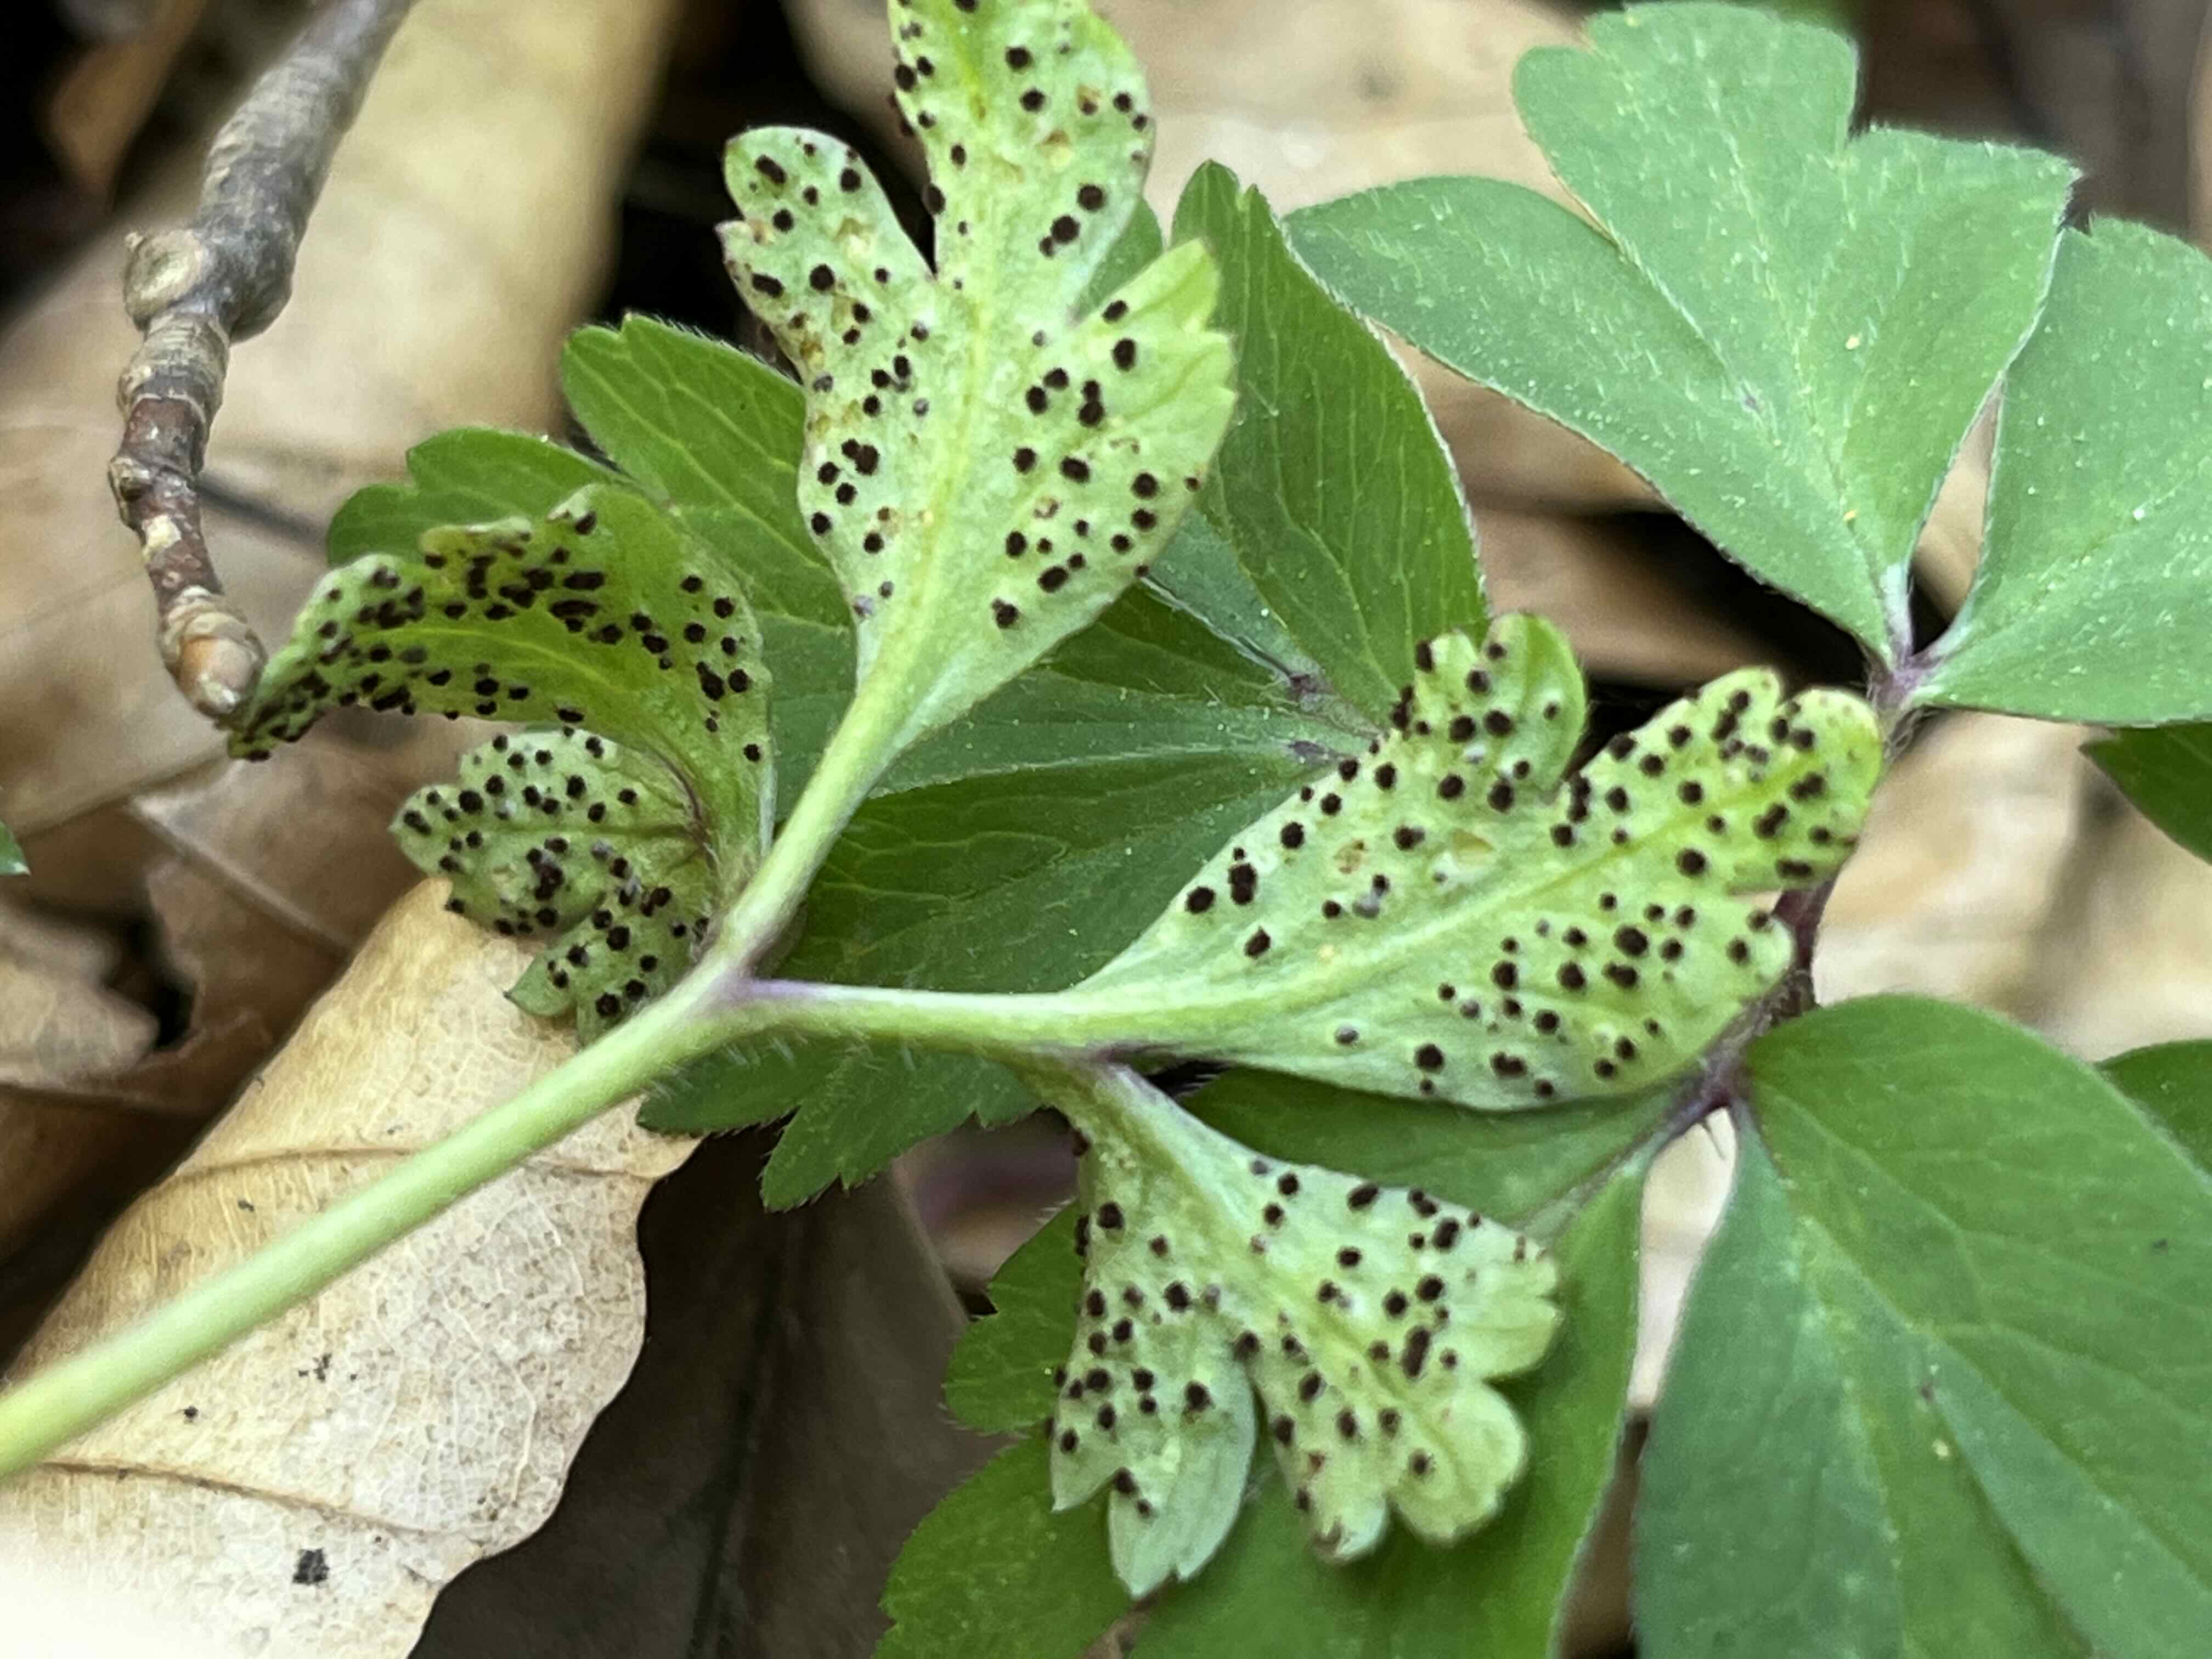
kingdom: Fungi
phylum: Basidiomycota
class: Pucciniomycetes
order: Pucciniales
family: Tranzscheliaceae
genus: Tranzschelia
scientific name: Tranzschelia anemones
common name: anemone-knæksporerust
